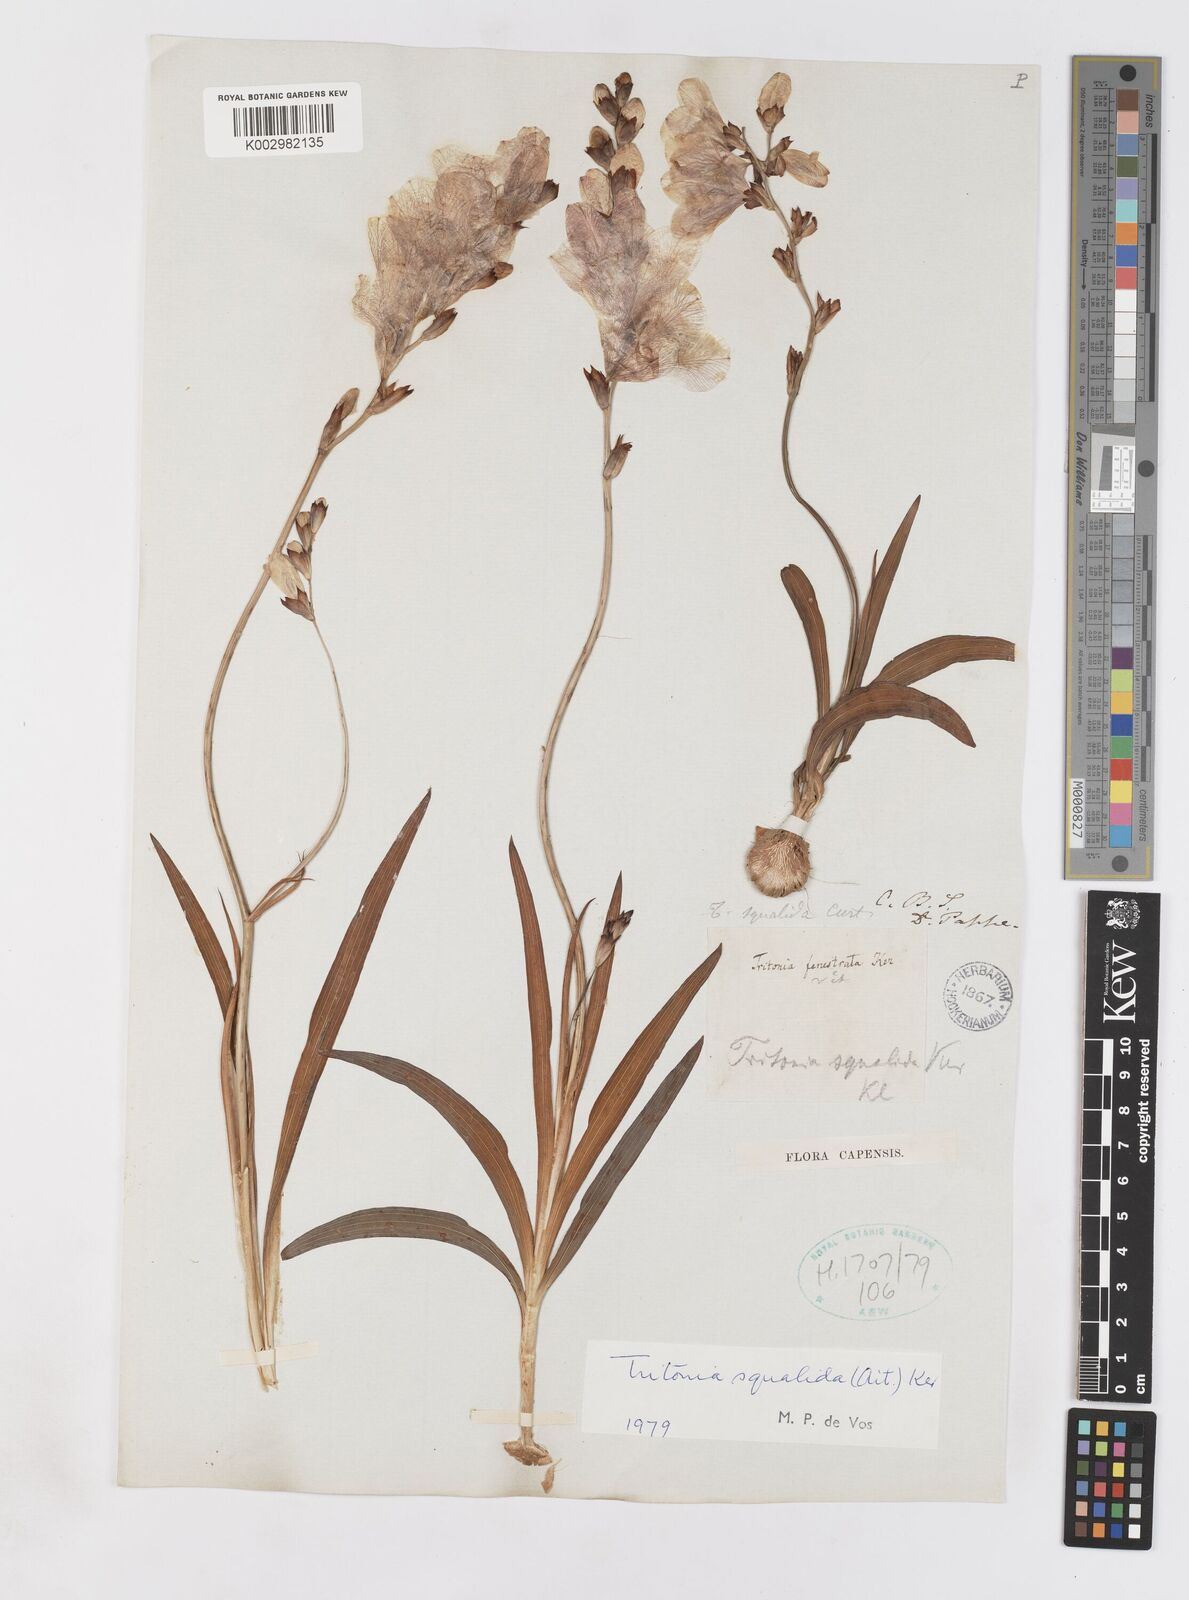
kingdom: Plantae
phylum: Tracheophyta
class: Liliopsida
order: Asparagales
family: Iridaceae
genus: Tritonia
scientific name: Tritonia squalida
